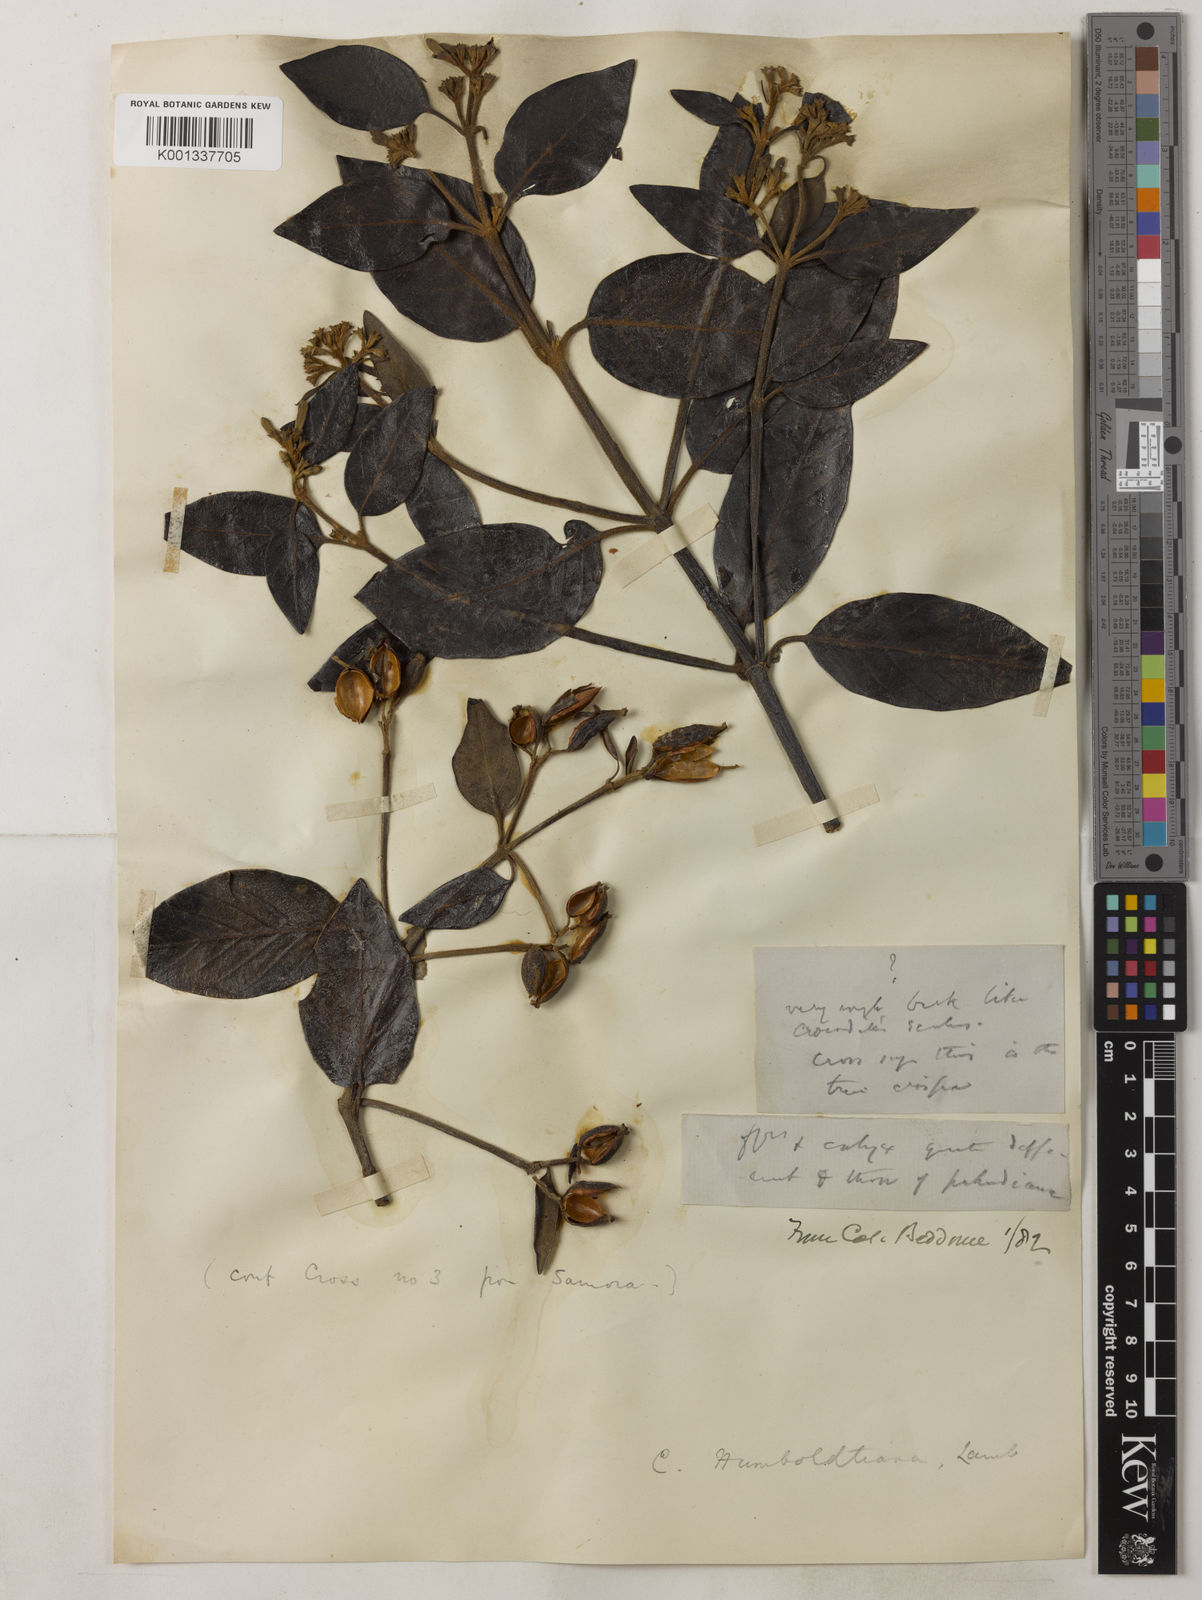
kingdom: Plantae
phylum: Tracheophyta
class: Magnoliopsida
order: Gentianales
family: Rubiaceae
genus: Cinchona
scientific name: Cinchona
